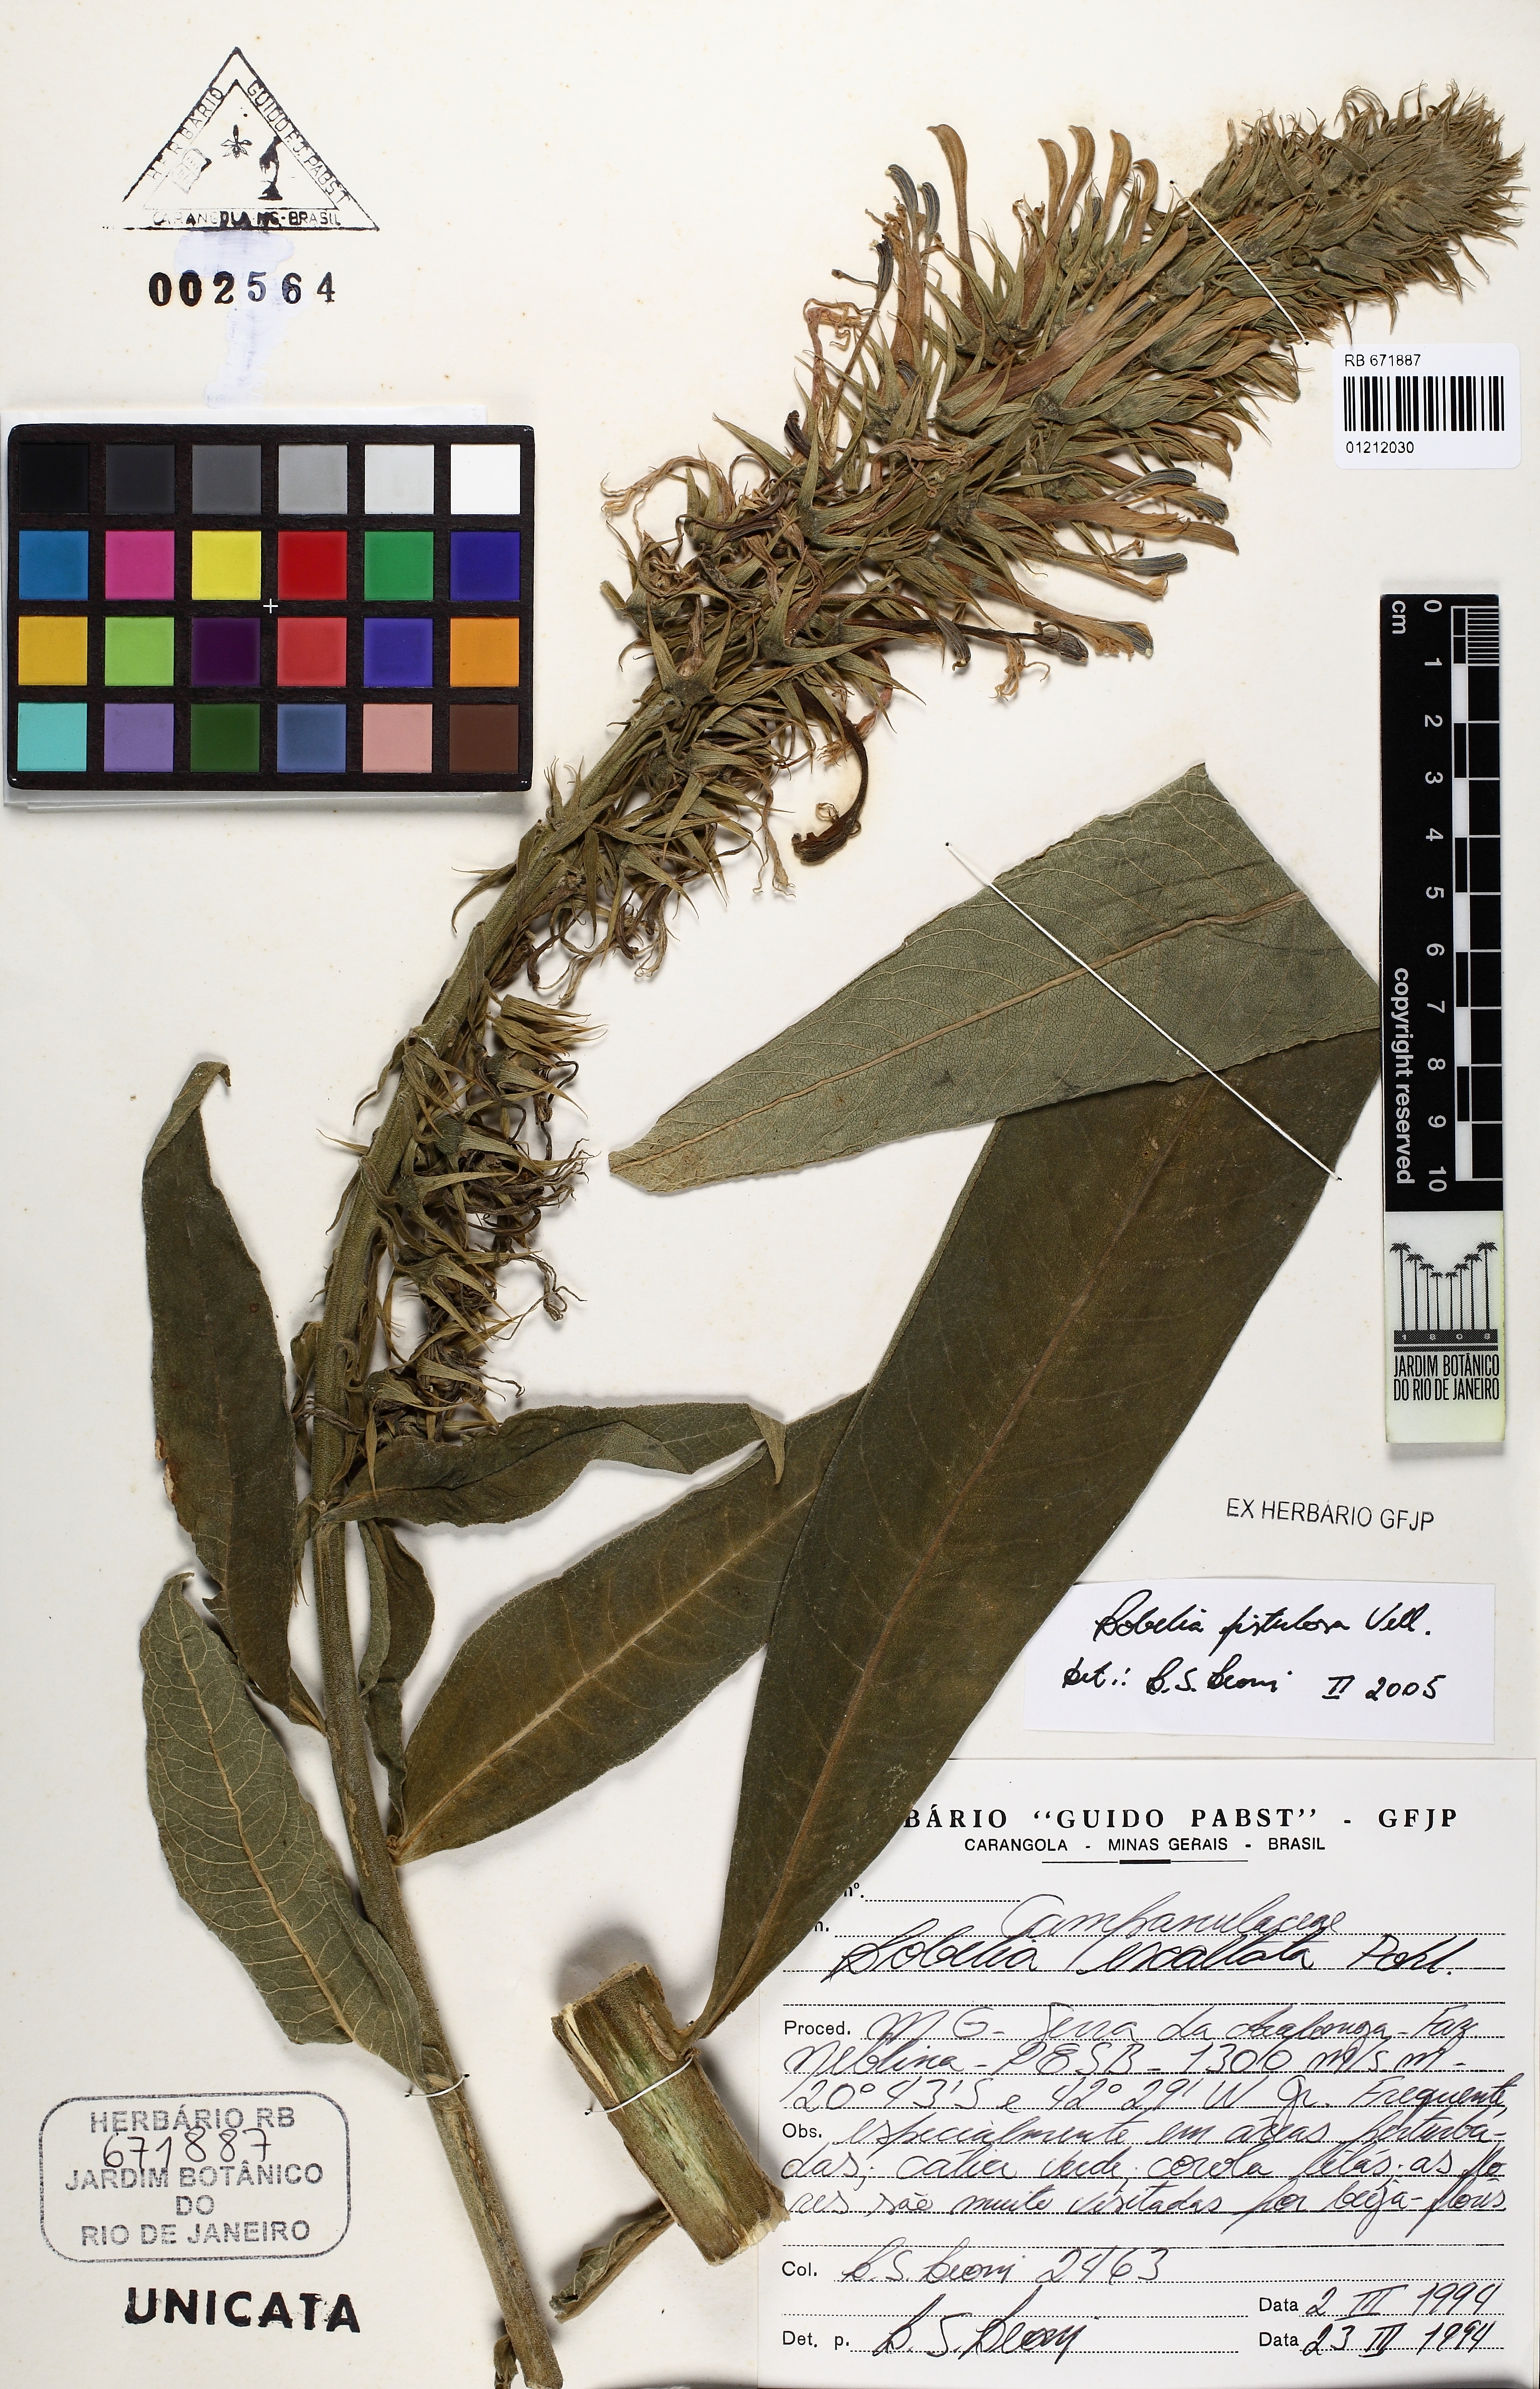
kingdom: Plantae
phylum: Tracheophyta
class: Magnoliopsida
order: Asterales
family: Campanulaceae
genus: Lobelia
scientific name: Lobelia thapsoidea
